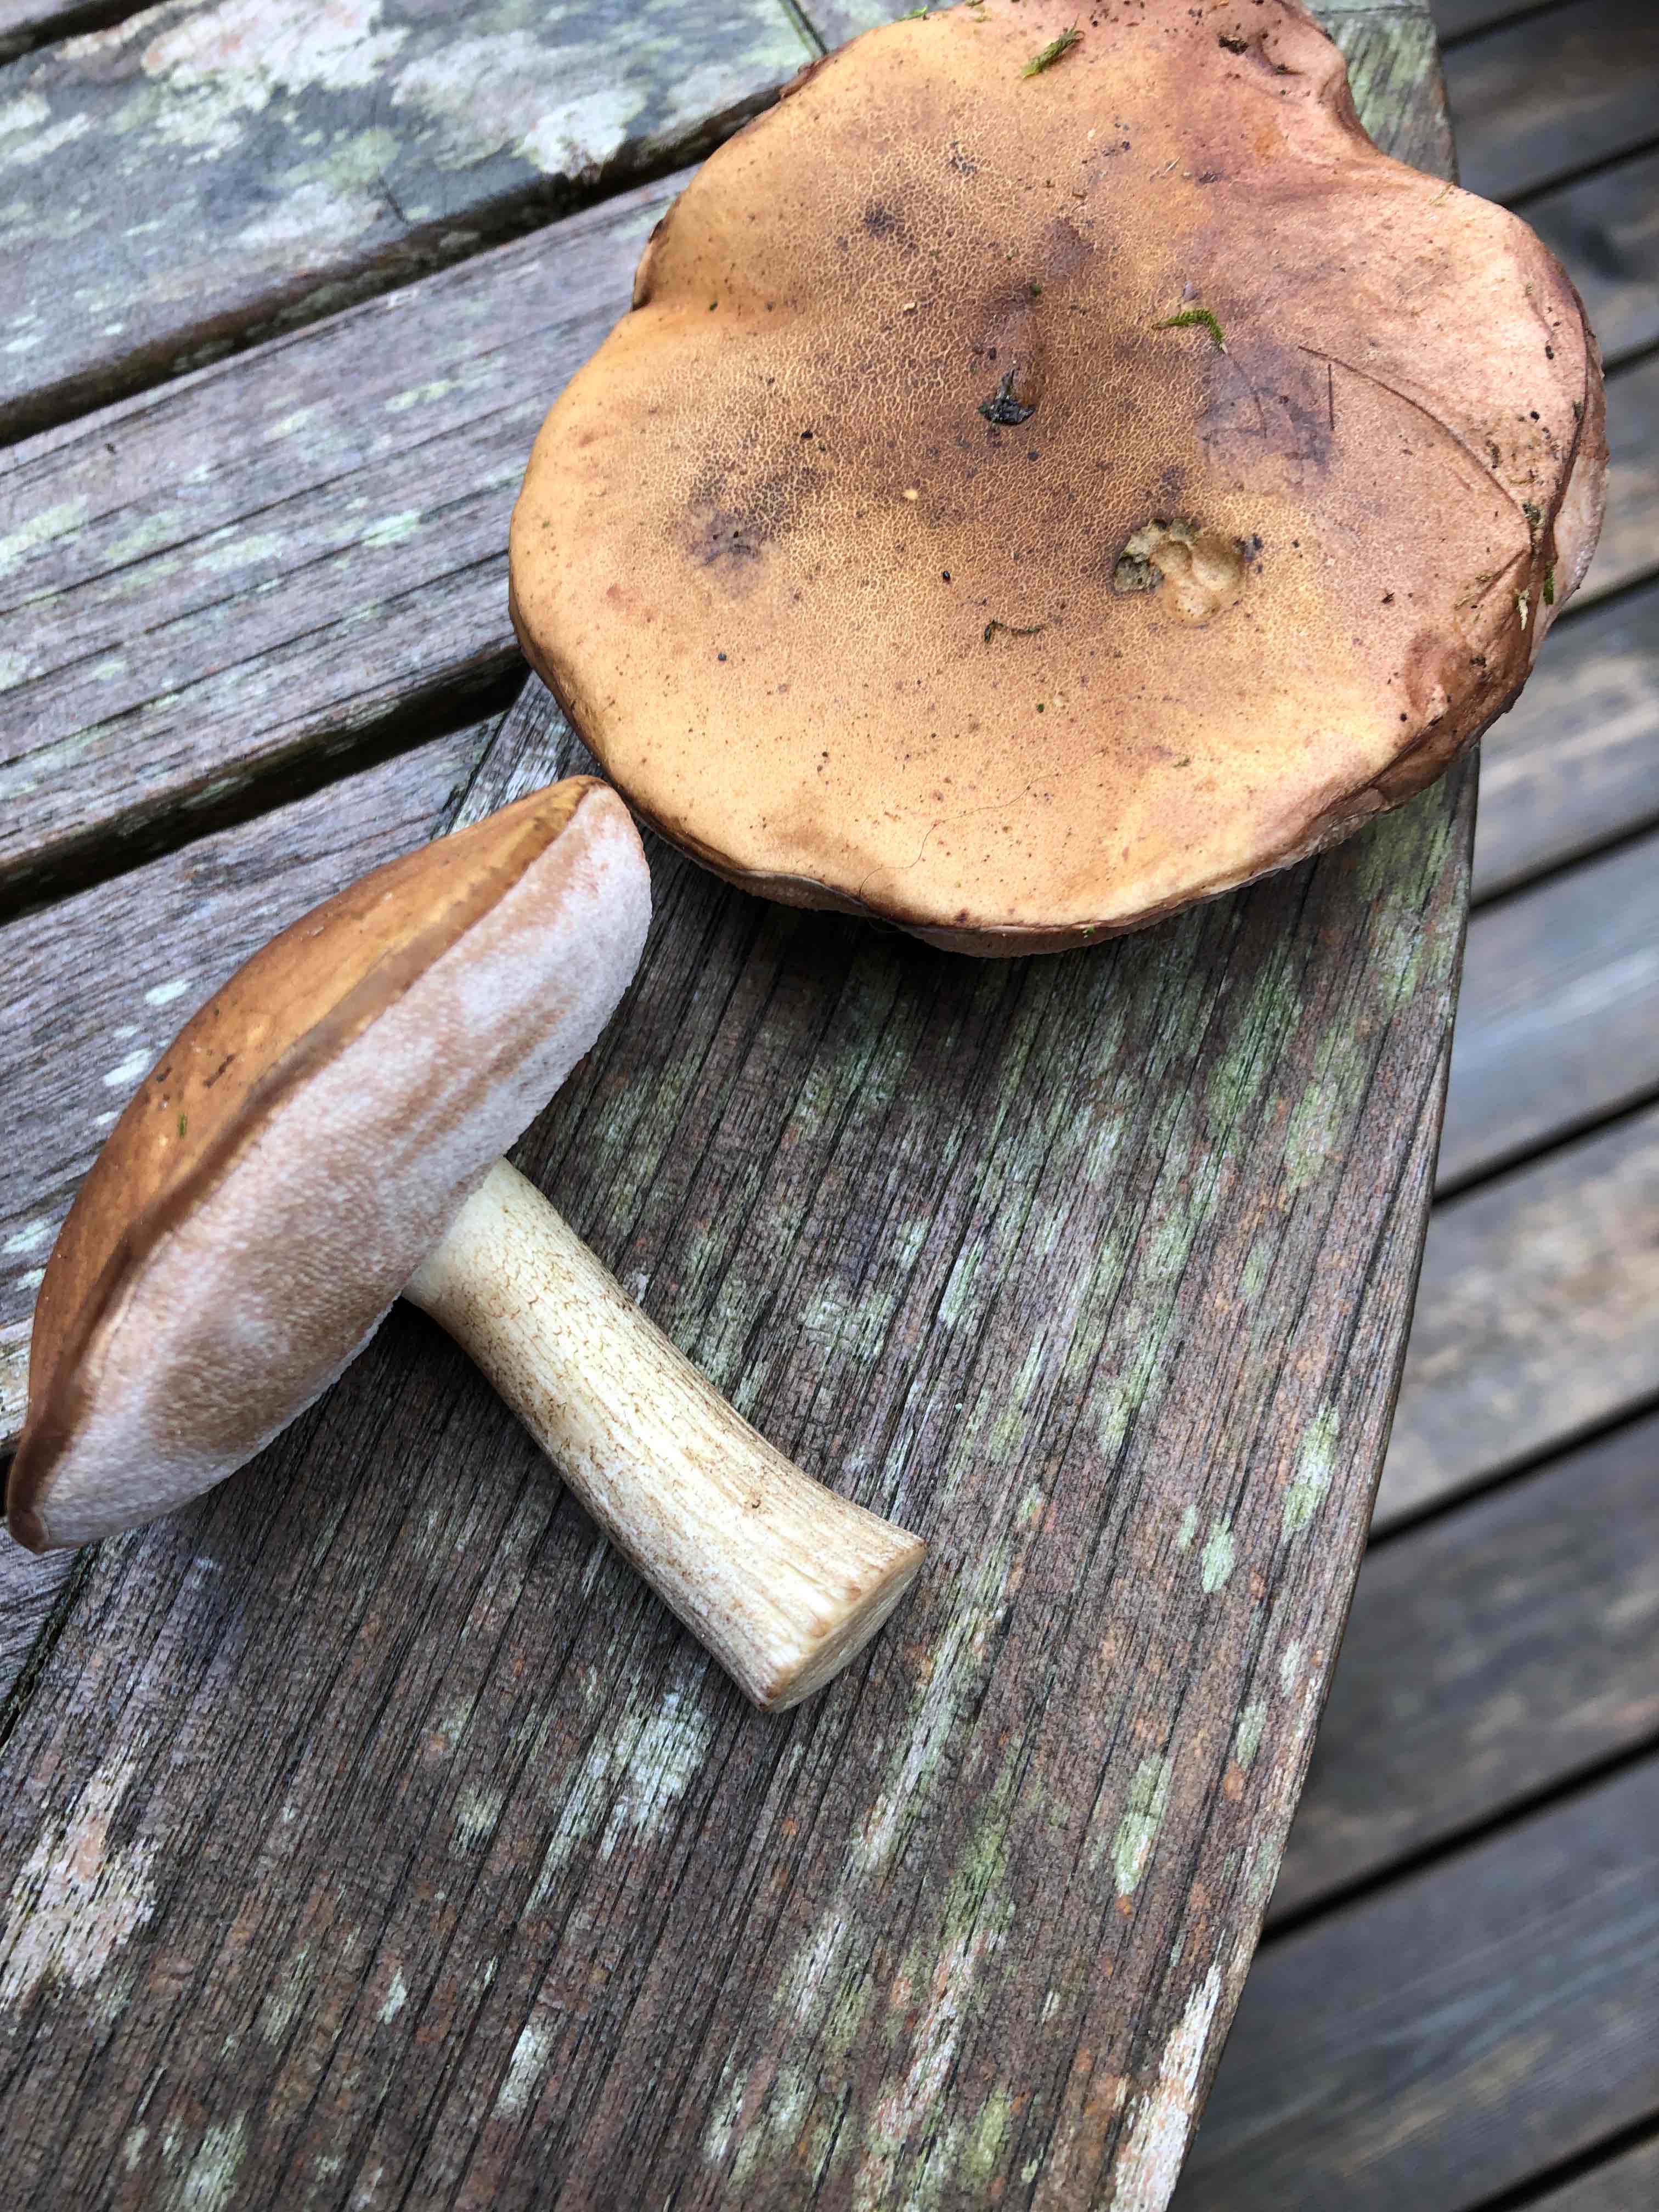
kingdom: Fungi
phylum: Basidiomycota
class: Agaricomycetes
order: Boletales
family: Boletaceae
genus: Tylopilus
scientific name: Tylopilus felleus
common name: galderørhat
